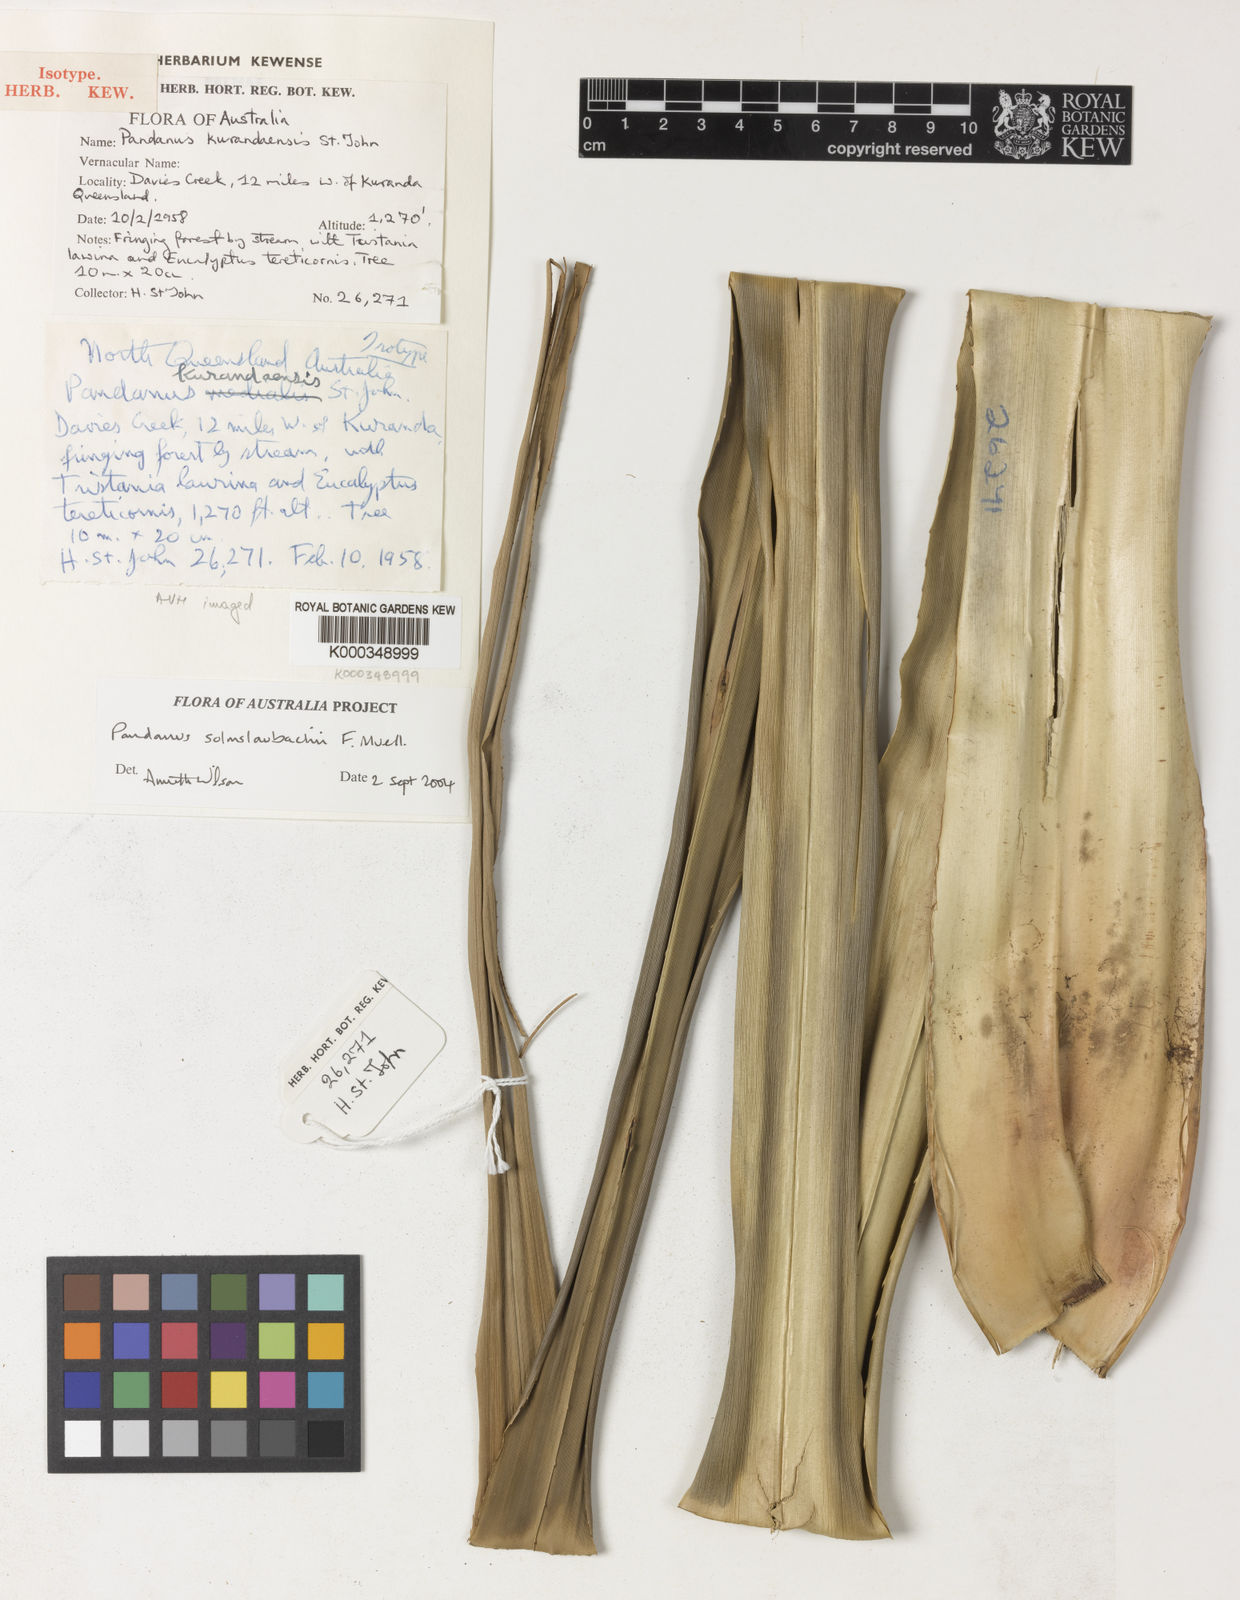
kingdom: Plantae
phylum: Tracheophyta
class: Liliopsida
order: Pandanales
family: Pandanaceae
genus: Pandanus
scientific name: Pandanus solms-laubachii
